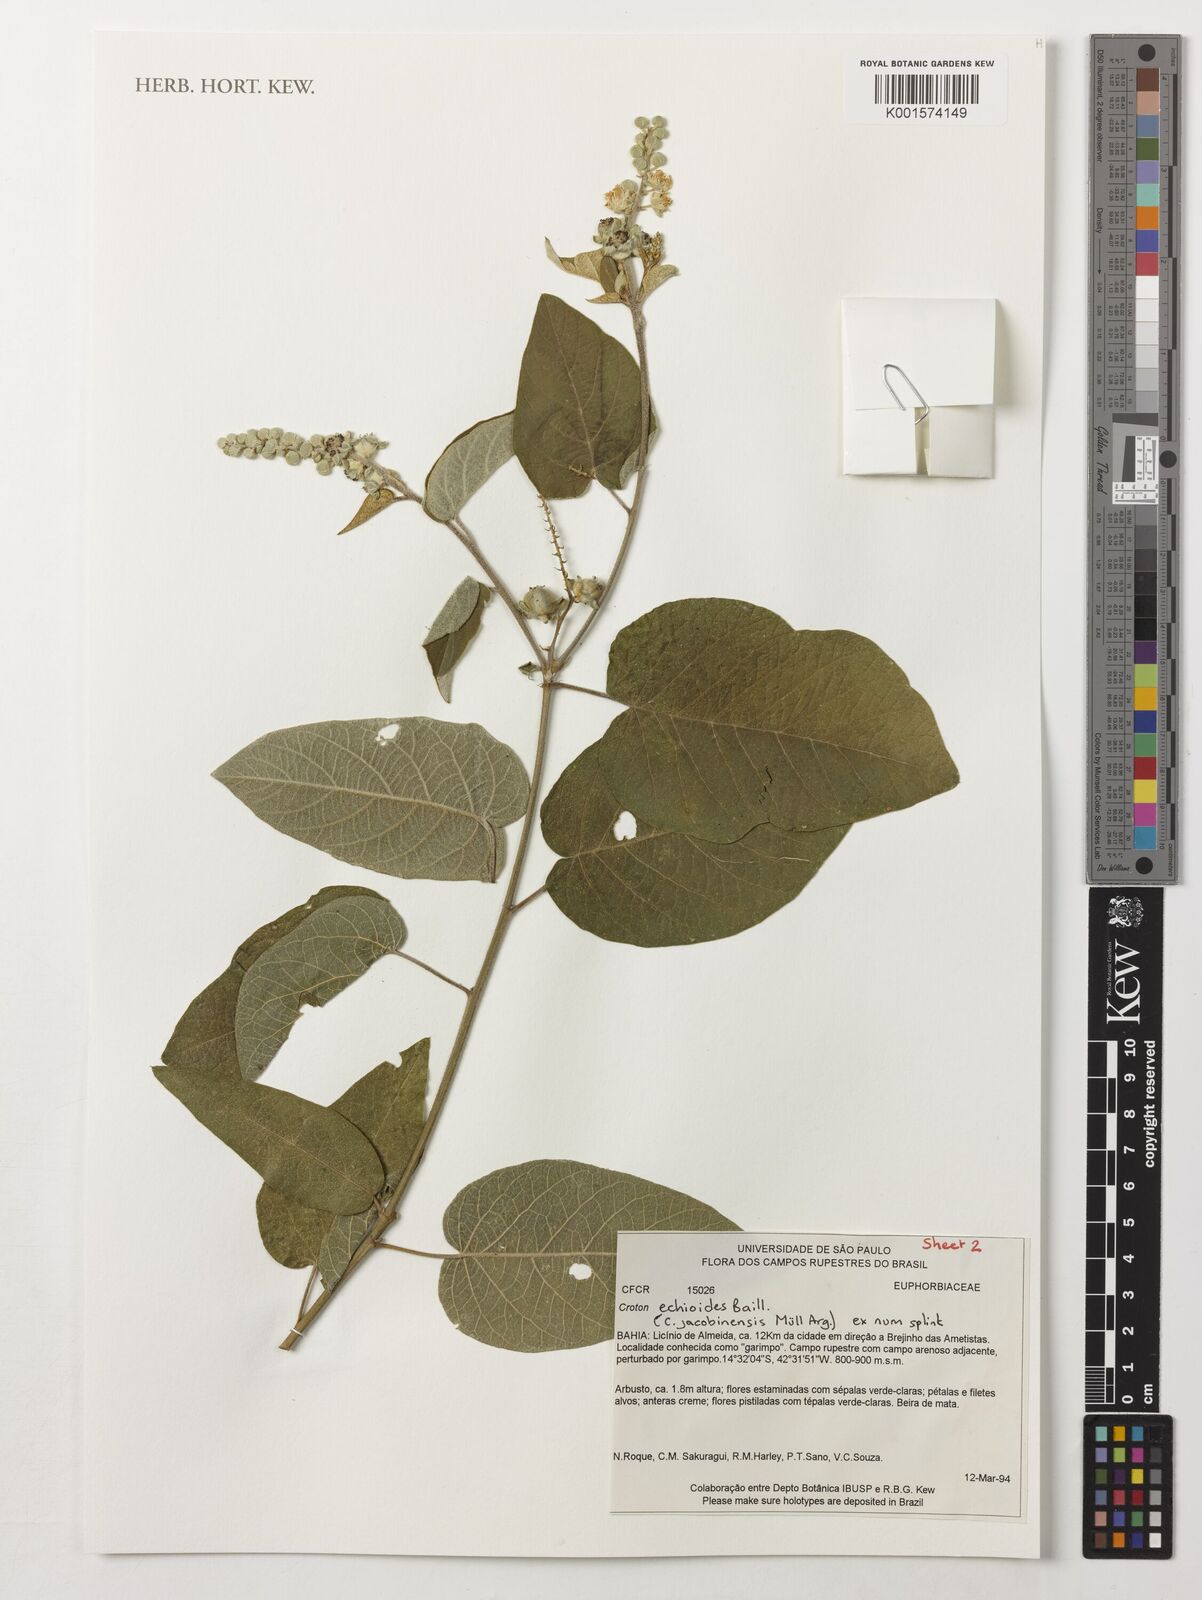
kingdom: Plantae
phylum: Tracheophyta
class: Magnoliopsida
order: Malpighiales
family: Euphorbiaceae
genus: Croton
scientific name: Croton echioideus
